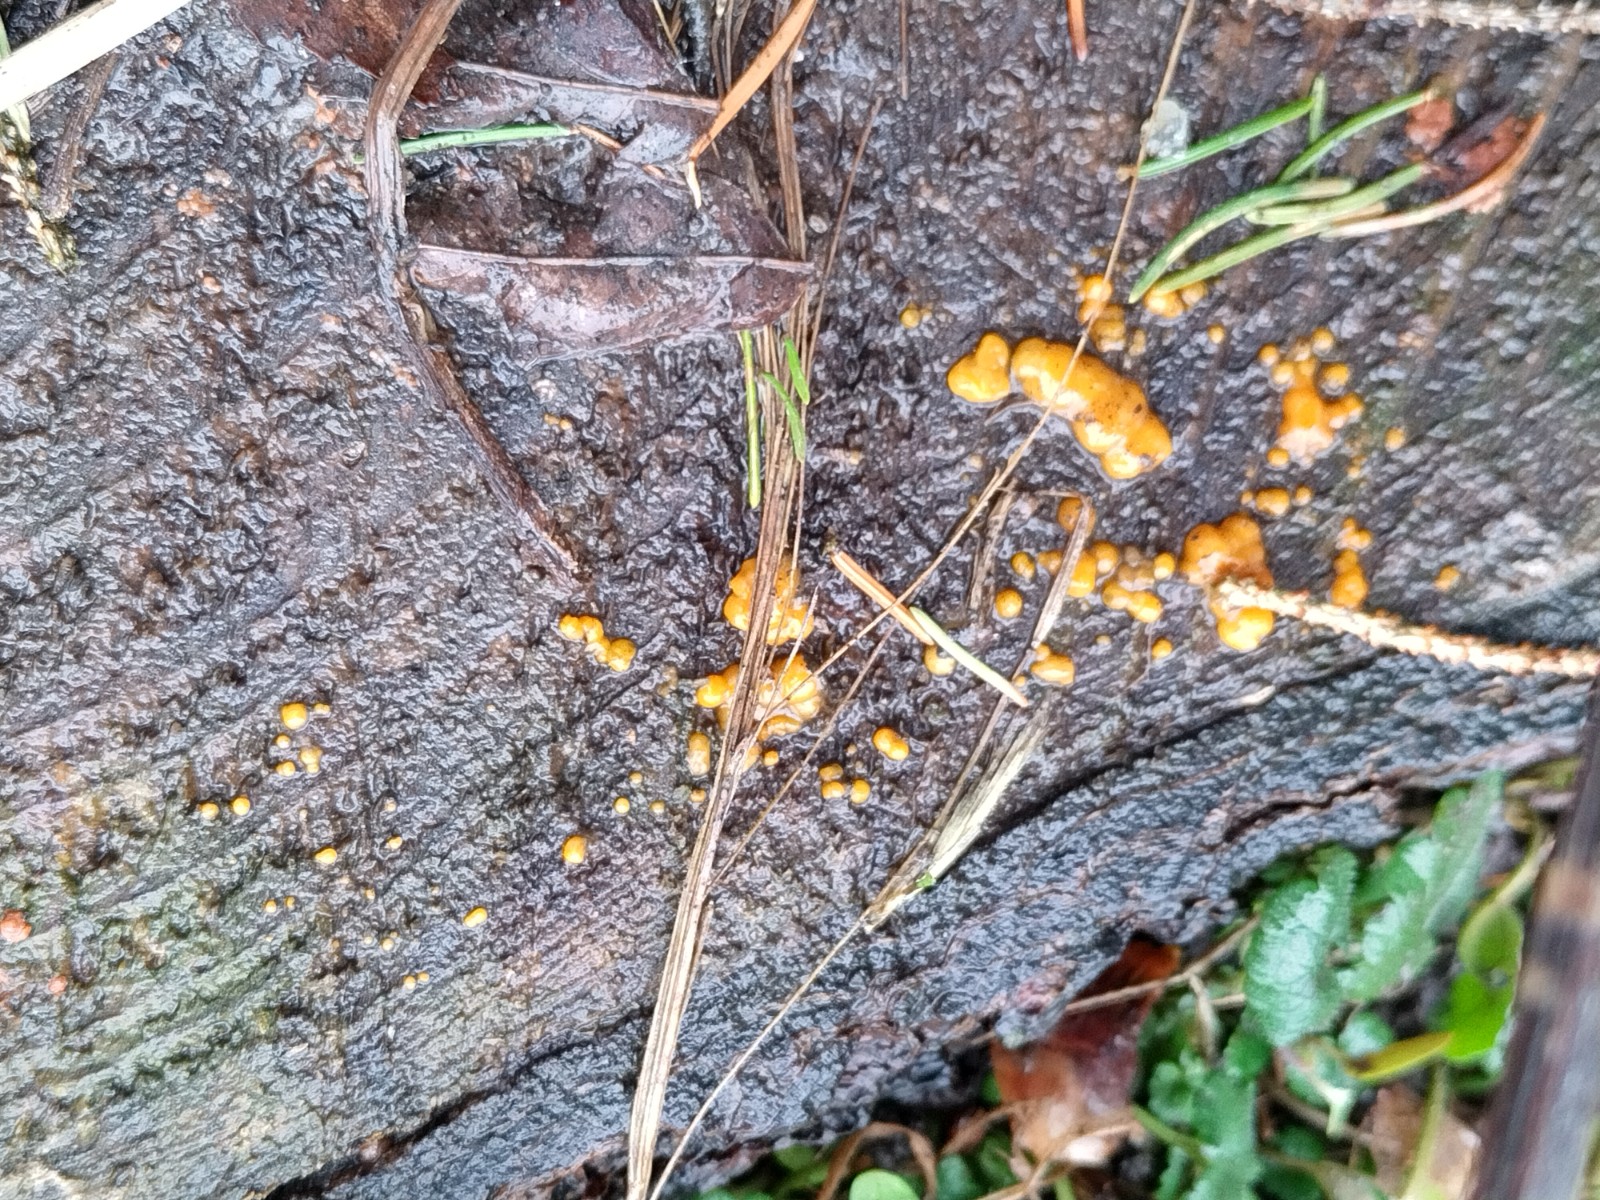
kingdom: Fungi
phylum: Basidiomycota
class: Dacrymycetes
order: Dacrymycetales
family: Dacrymycetaceae
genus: Dacrymyces
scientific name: Dacrymyces stillatus
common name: almindelig tåresvamp
